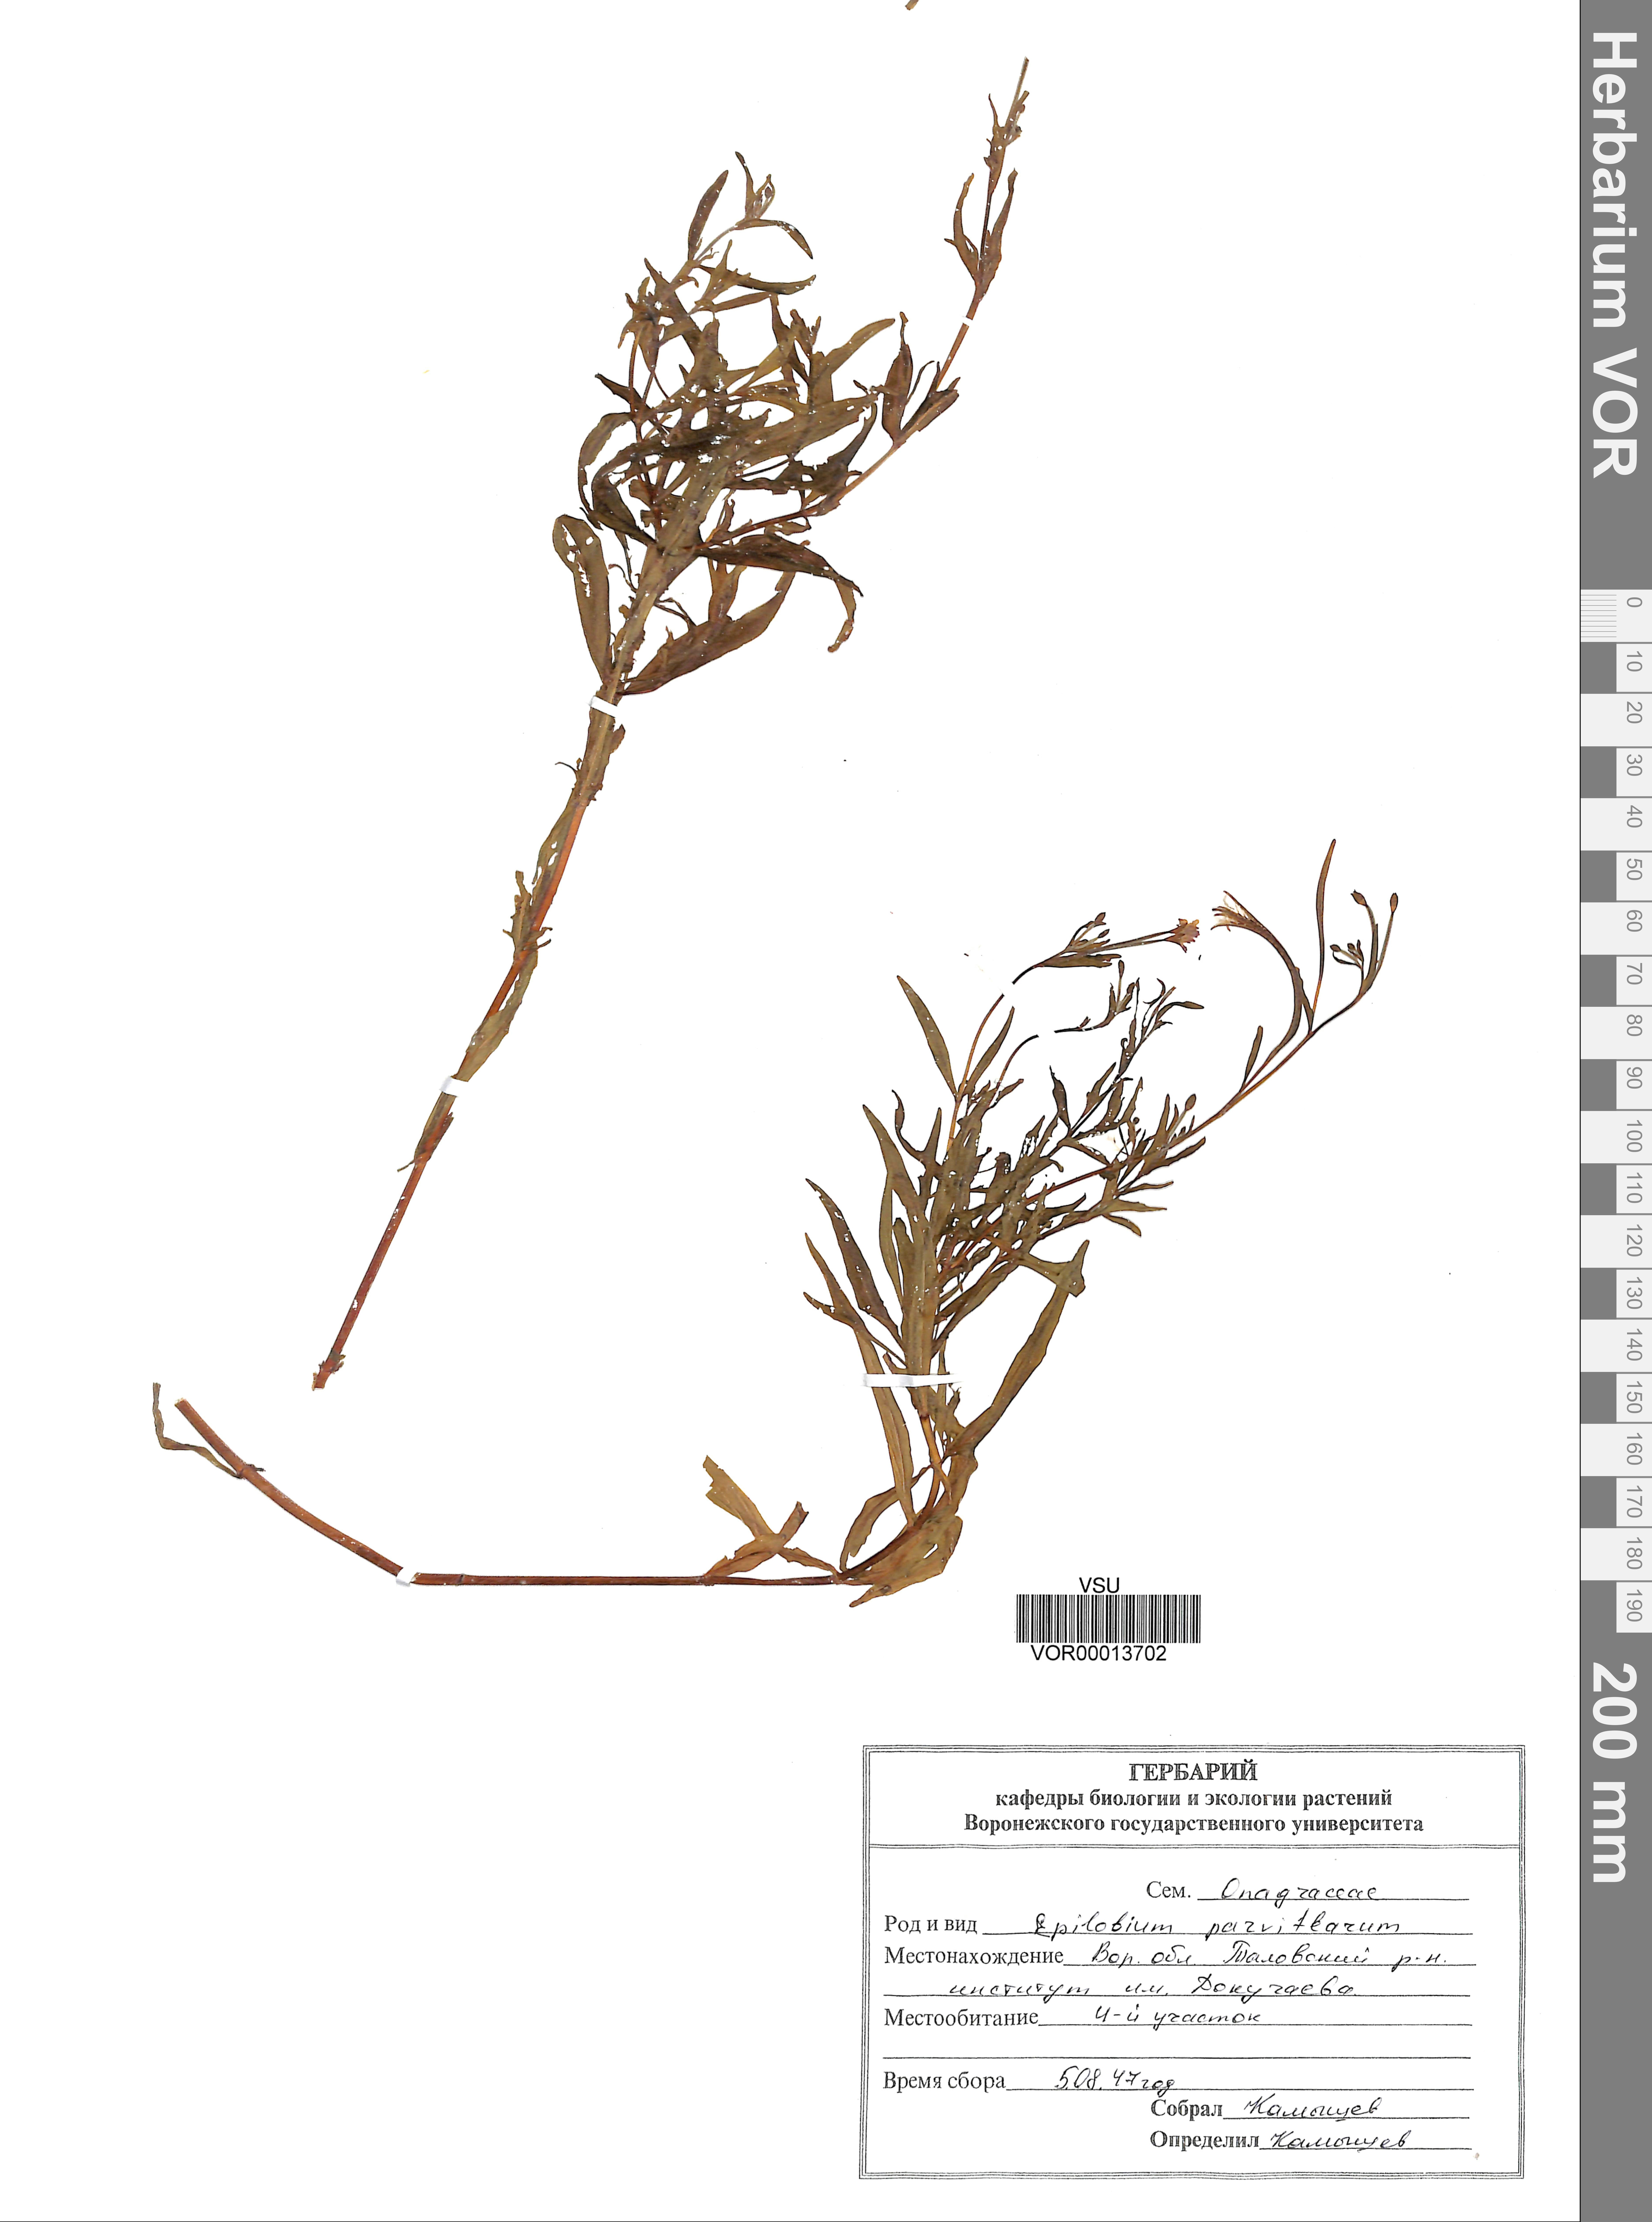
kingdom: Plantae
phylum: Tracheophyta
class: Magnoliopsida
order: Myrtales
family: Onagraceae
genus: Epilobium
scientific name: Epilobium parviflorum
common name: Hoary willowherb
